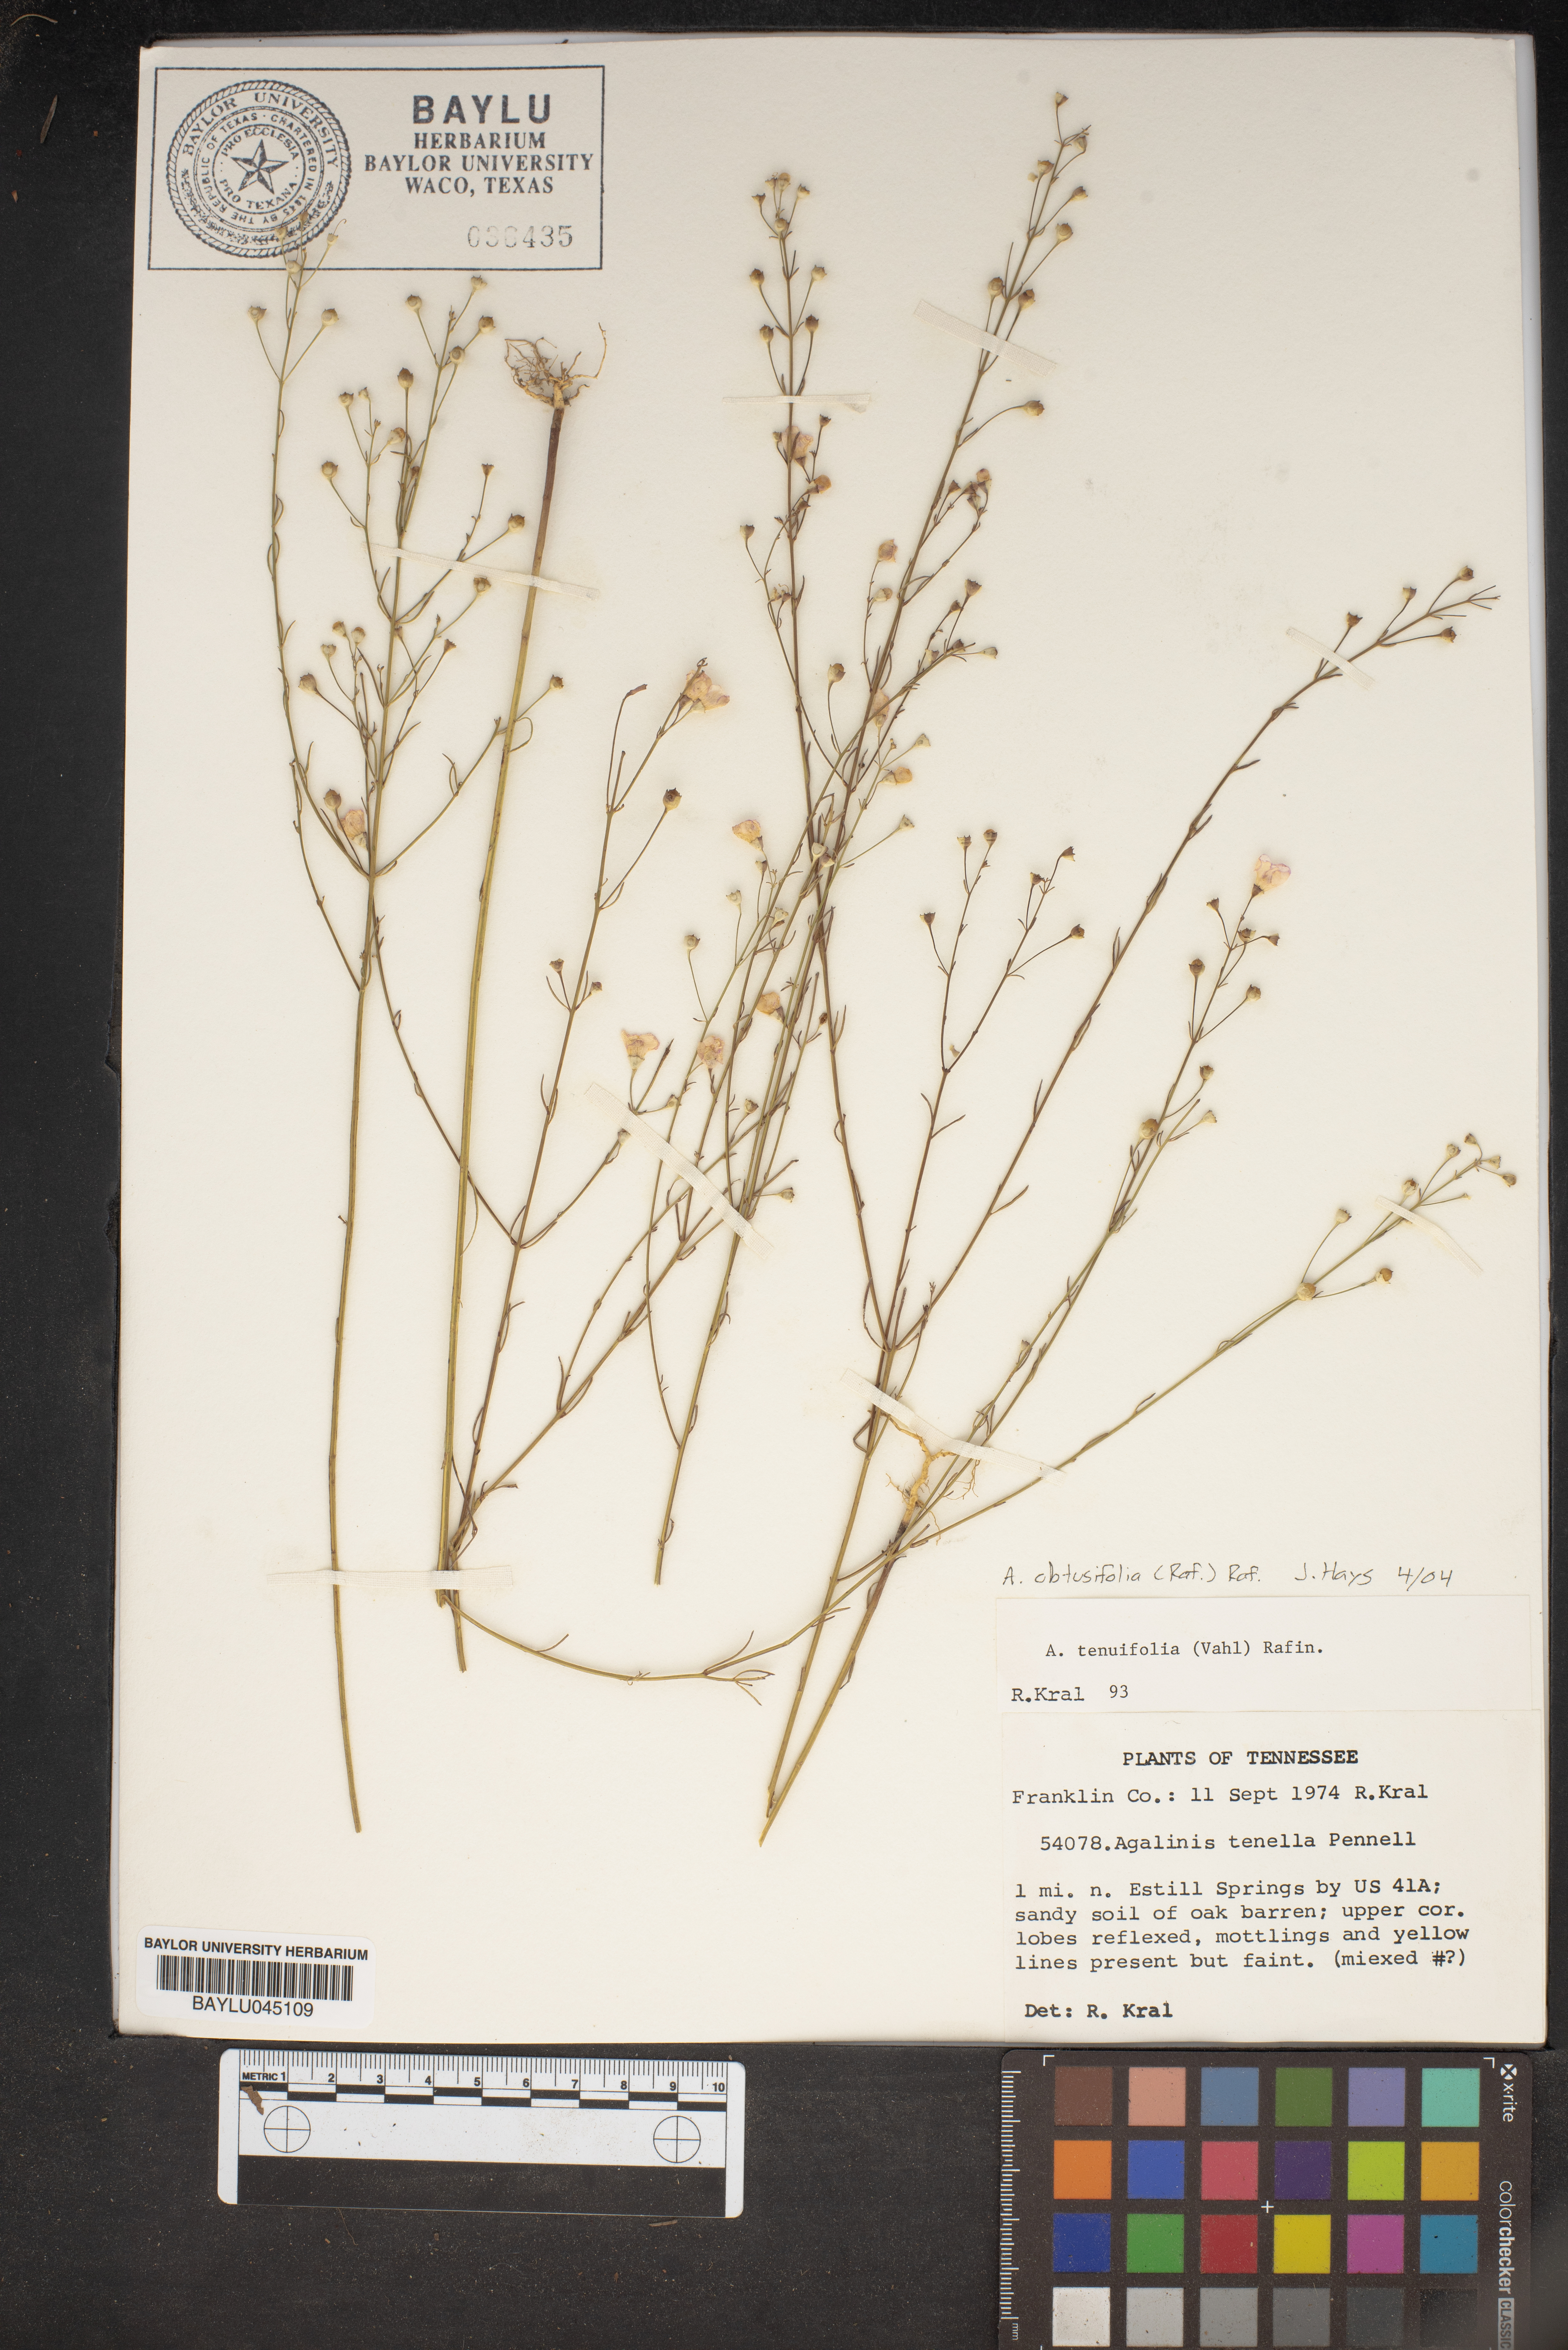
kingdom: Plantae
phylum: Tracheophyta
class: Magnoliopsida
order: Lamiales
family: Orobanchaceae
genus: Agalinis
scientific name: Agalinis tenella
